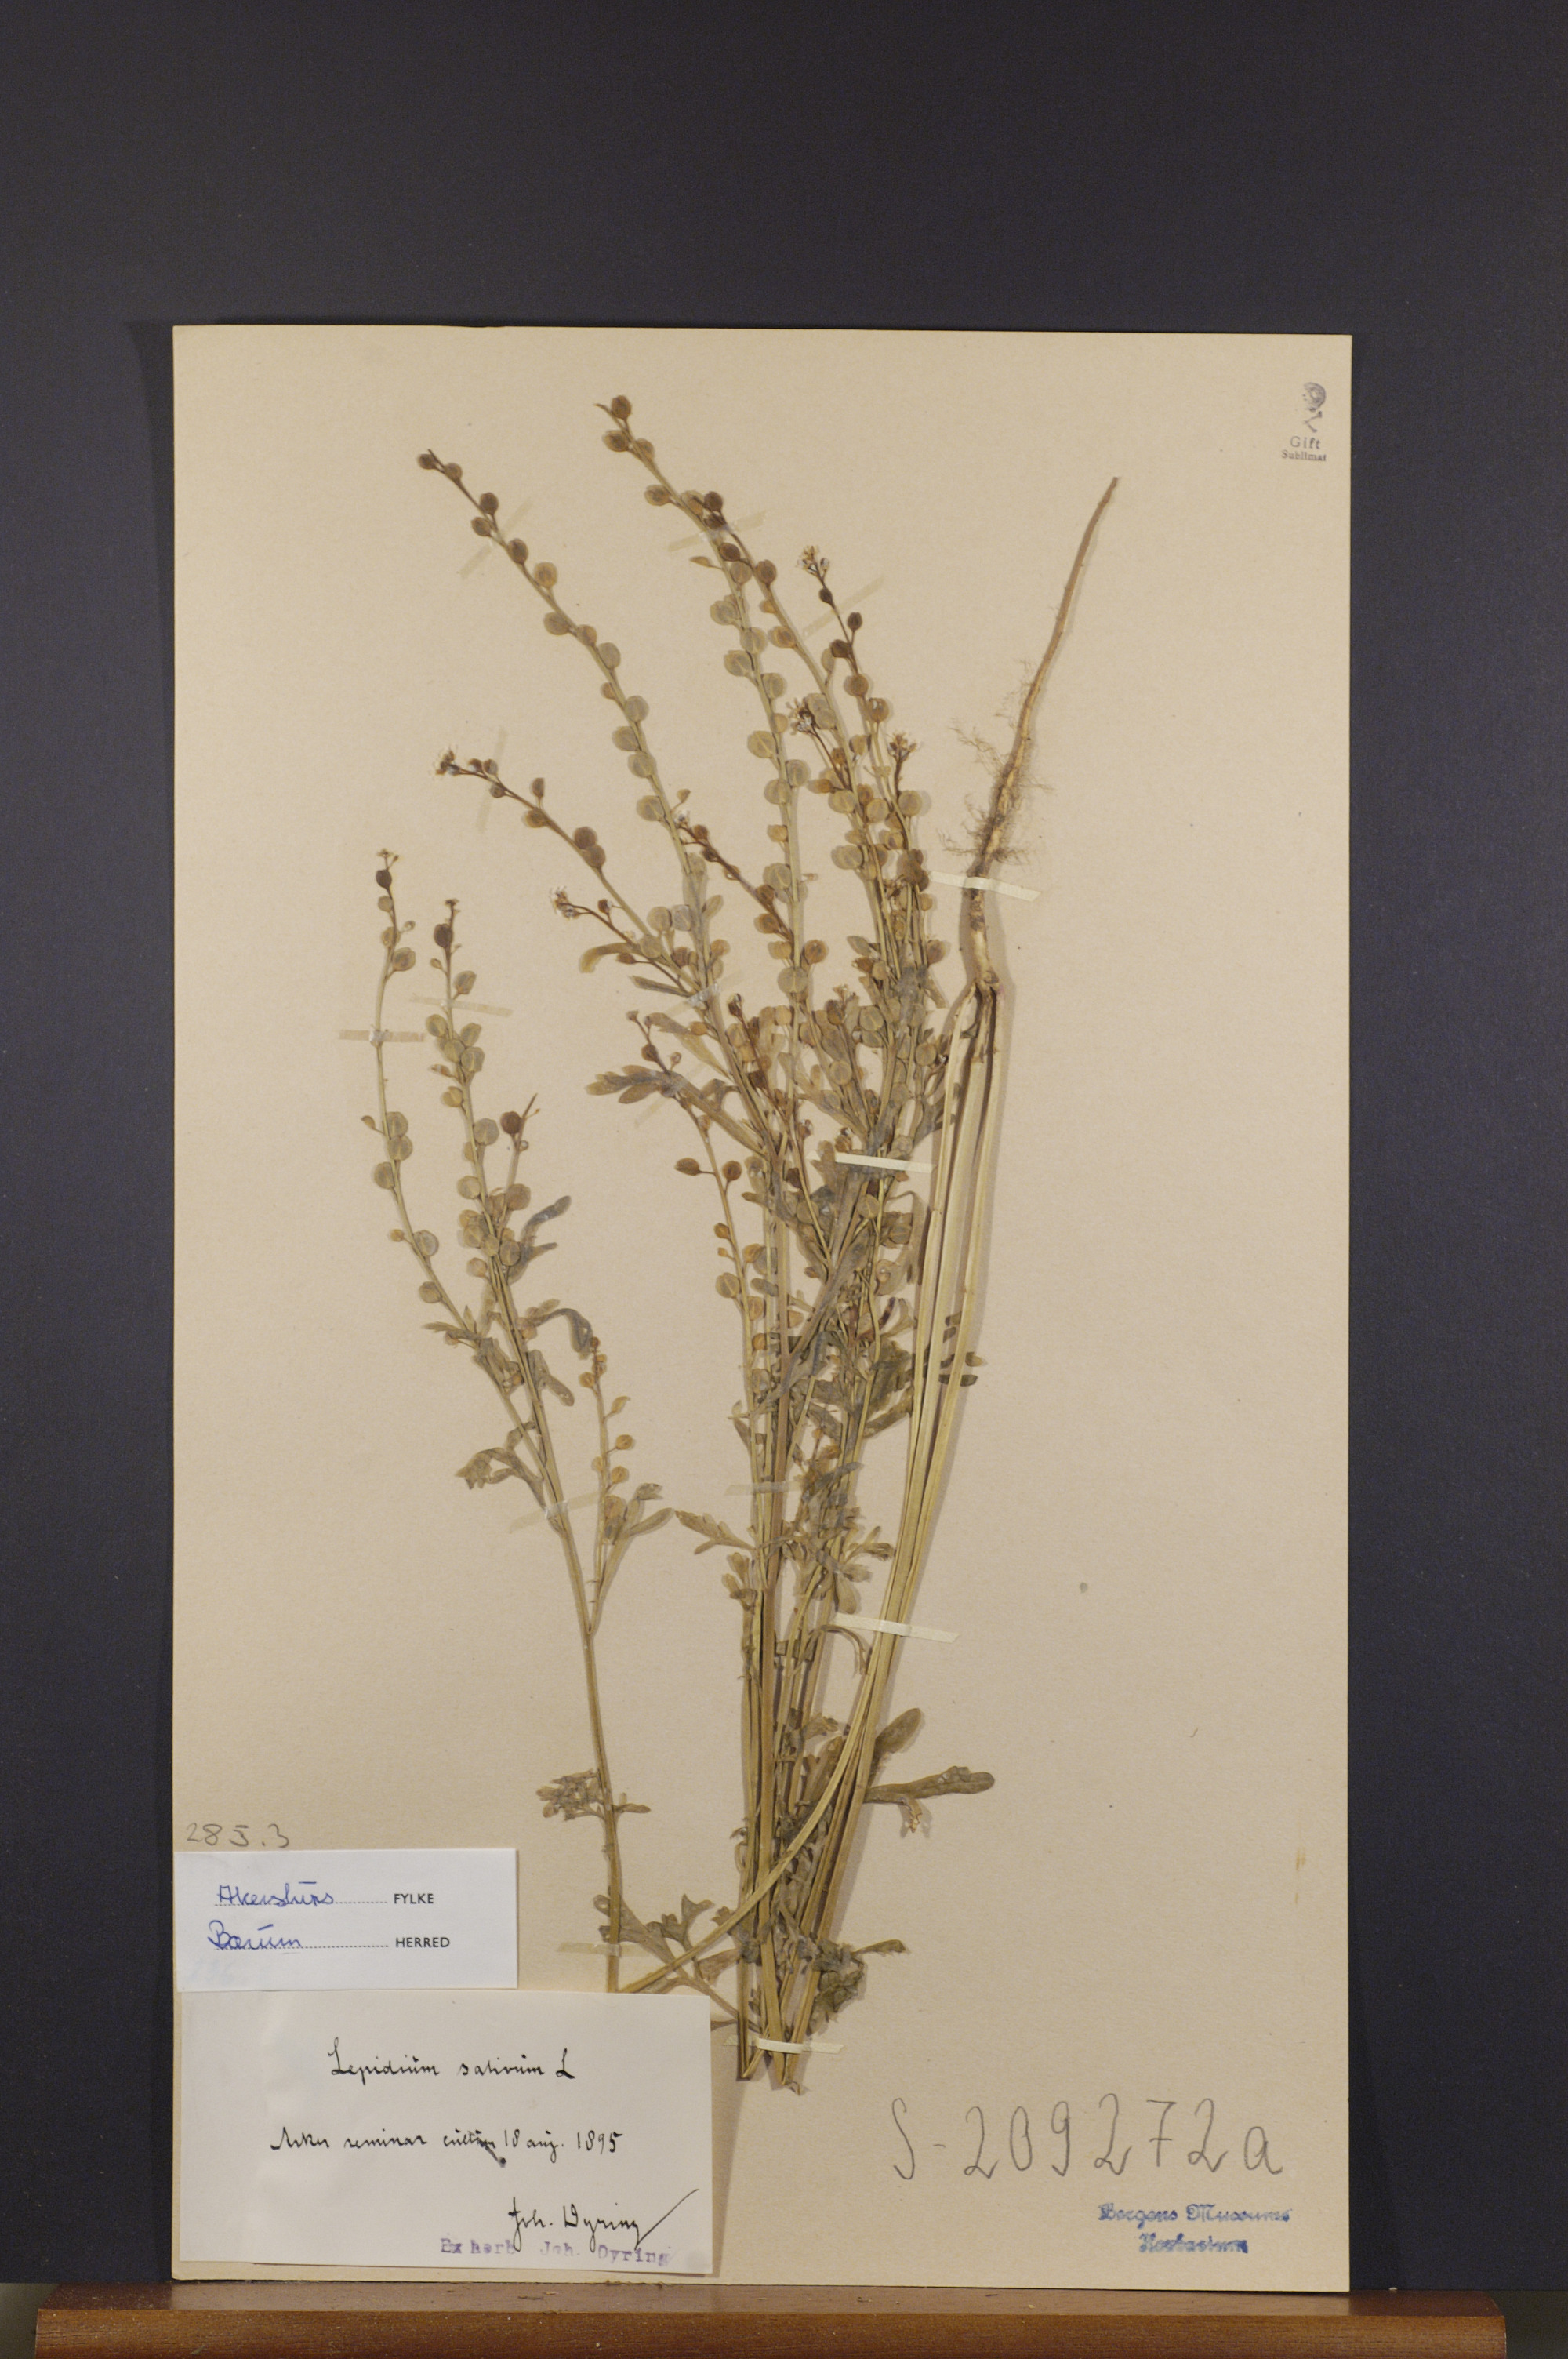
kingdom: Plantae
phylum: Tracheophyta
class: Magnoliopsida
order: Brassicales
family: Brassicaceae
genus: Lepidium
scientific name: Lepidium sativum
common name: Garden cress
